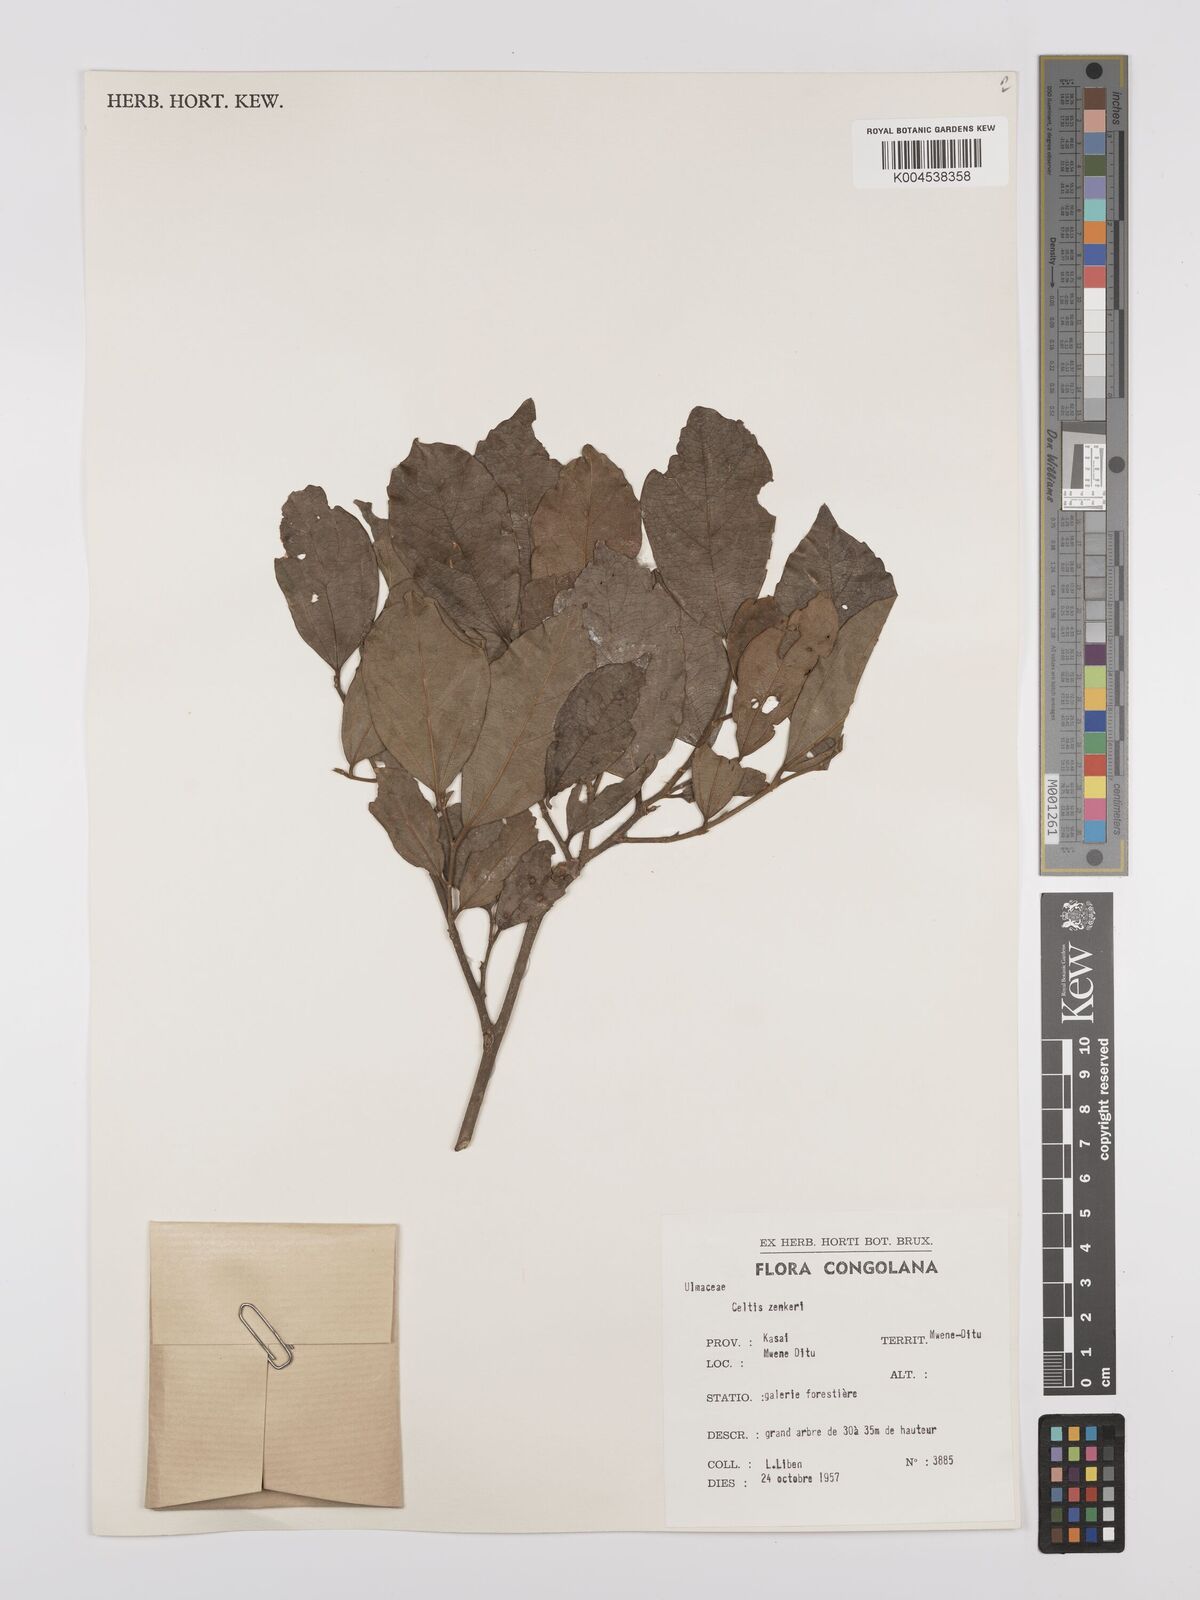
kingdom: Plantae
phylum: Tracheophyta
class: Magnoliopsida
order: Rosales
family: Cannabaceae
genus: Celtis
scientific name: Celtis zenkeri
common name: African celtis
